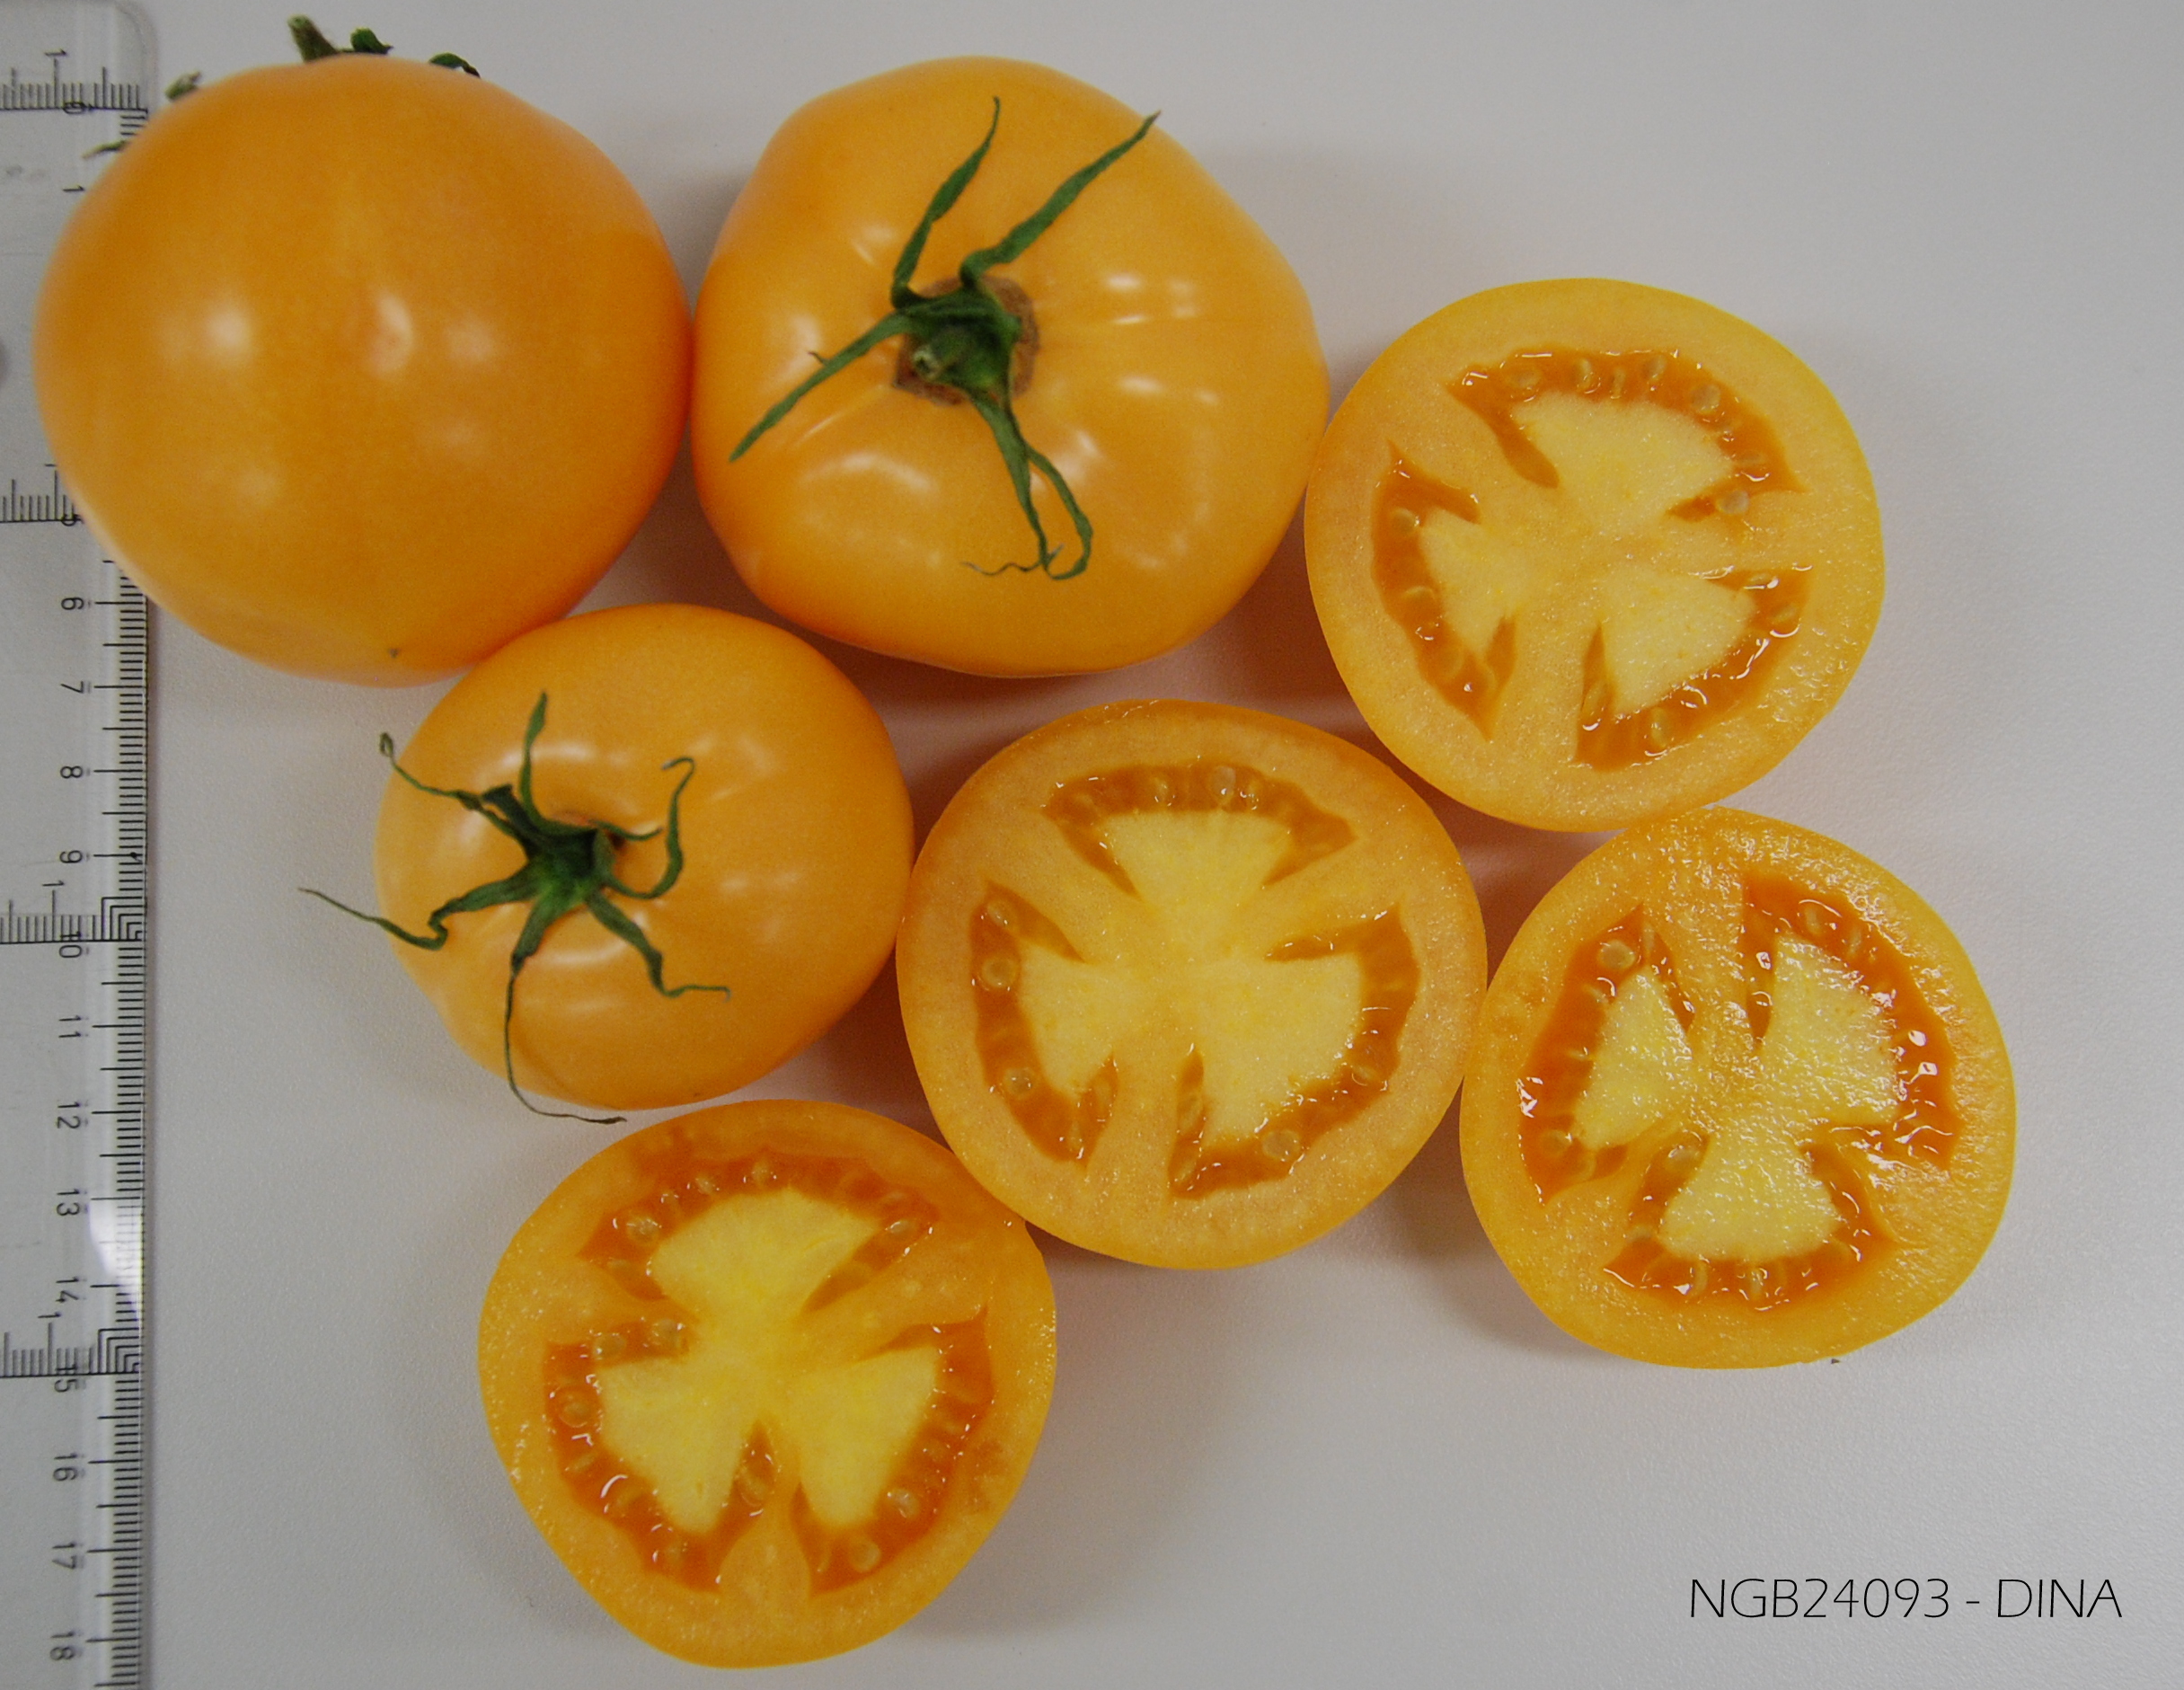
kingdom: Plantae
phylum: Tracheophyta
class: Magnoliopsida
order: Solanales
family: Solanaceae
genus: Solanum
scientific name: Solanum lycopersicum
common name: Garden tomato
